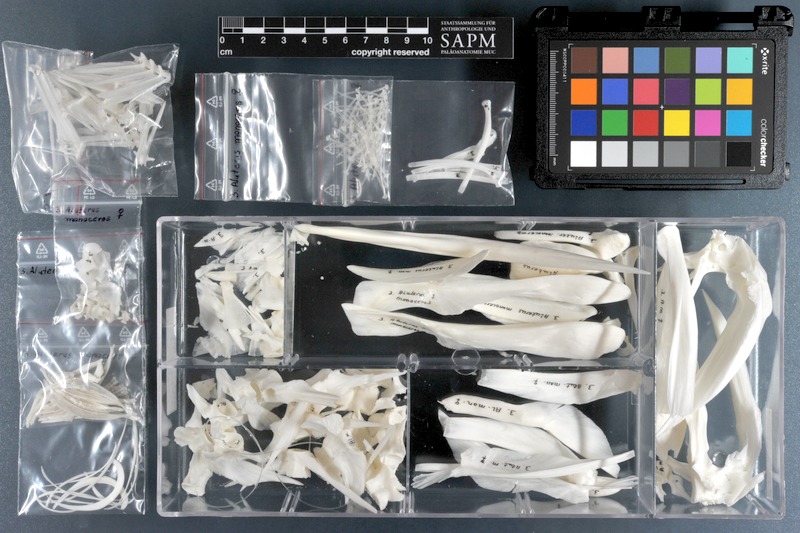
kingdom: Animalia
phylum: Chordata
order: Tetraodontiformes
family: Monacanthidae
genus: Aluterus
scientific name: Aluterus monoceros
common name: Batfish
